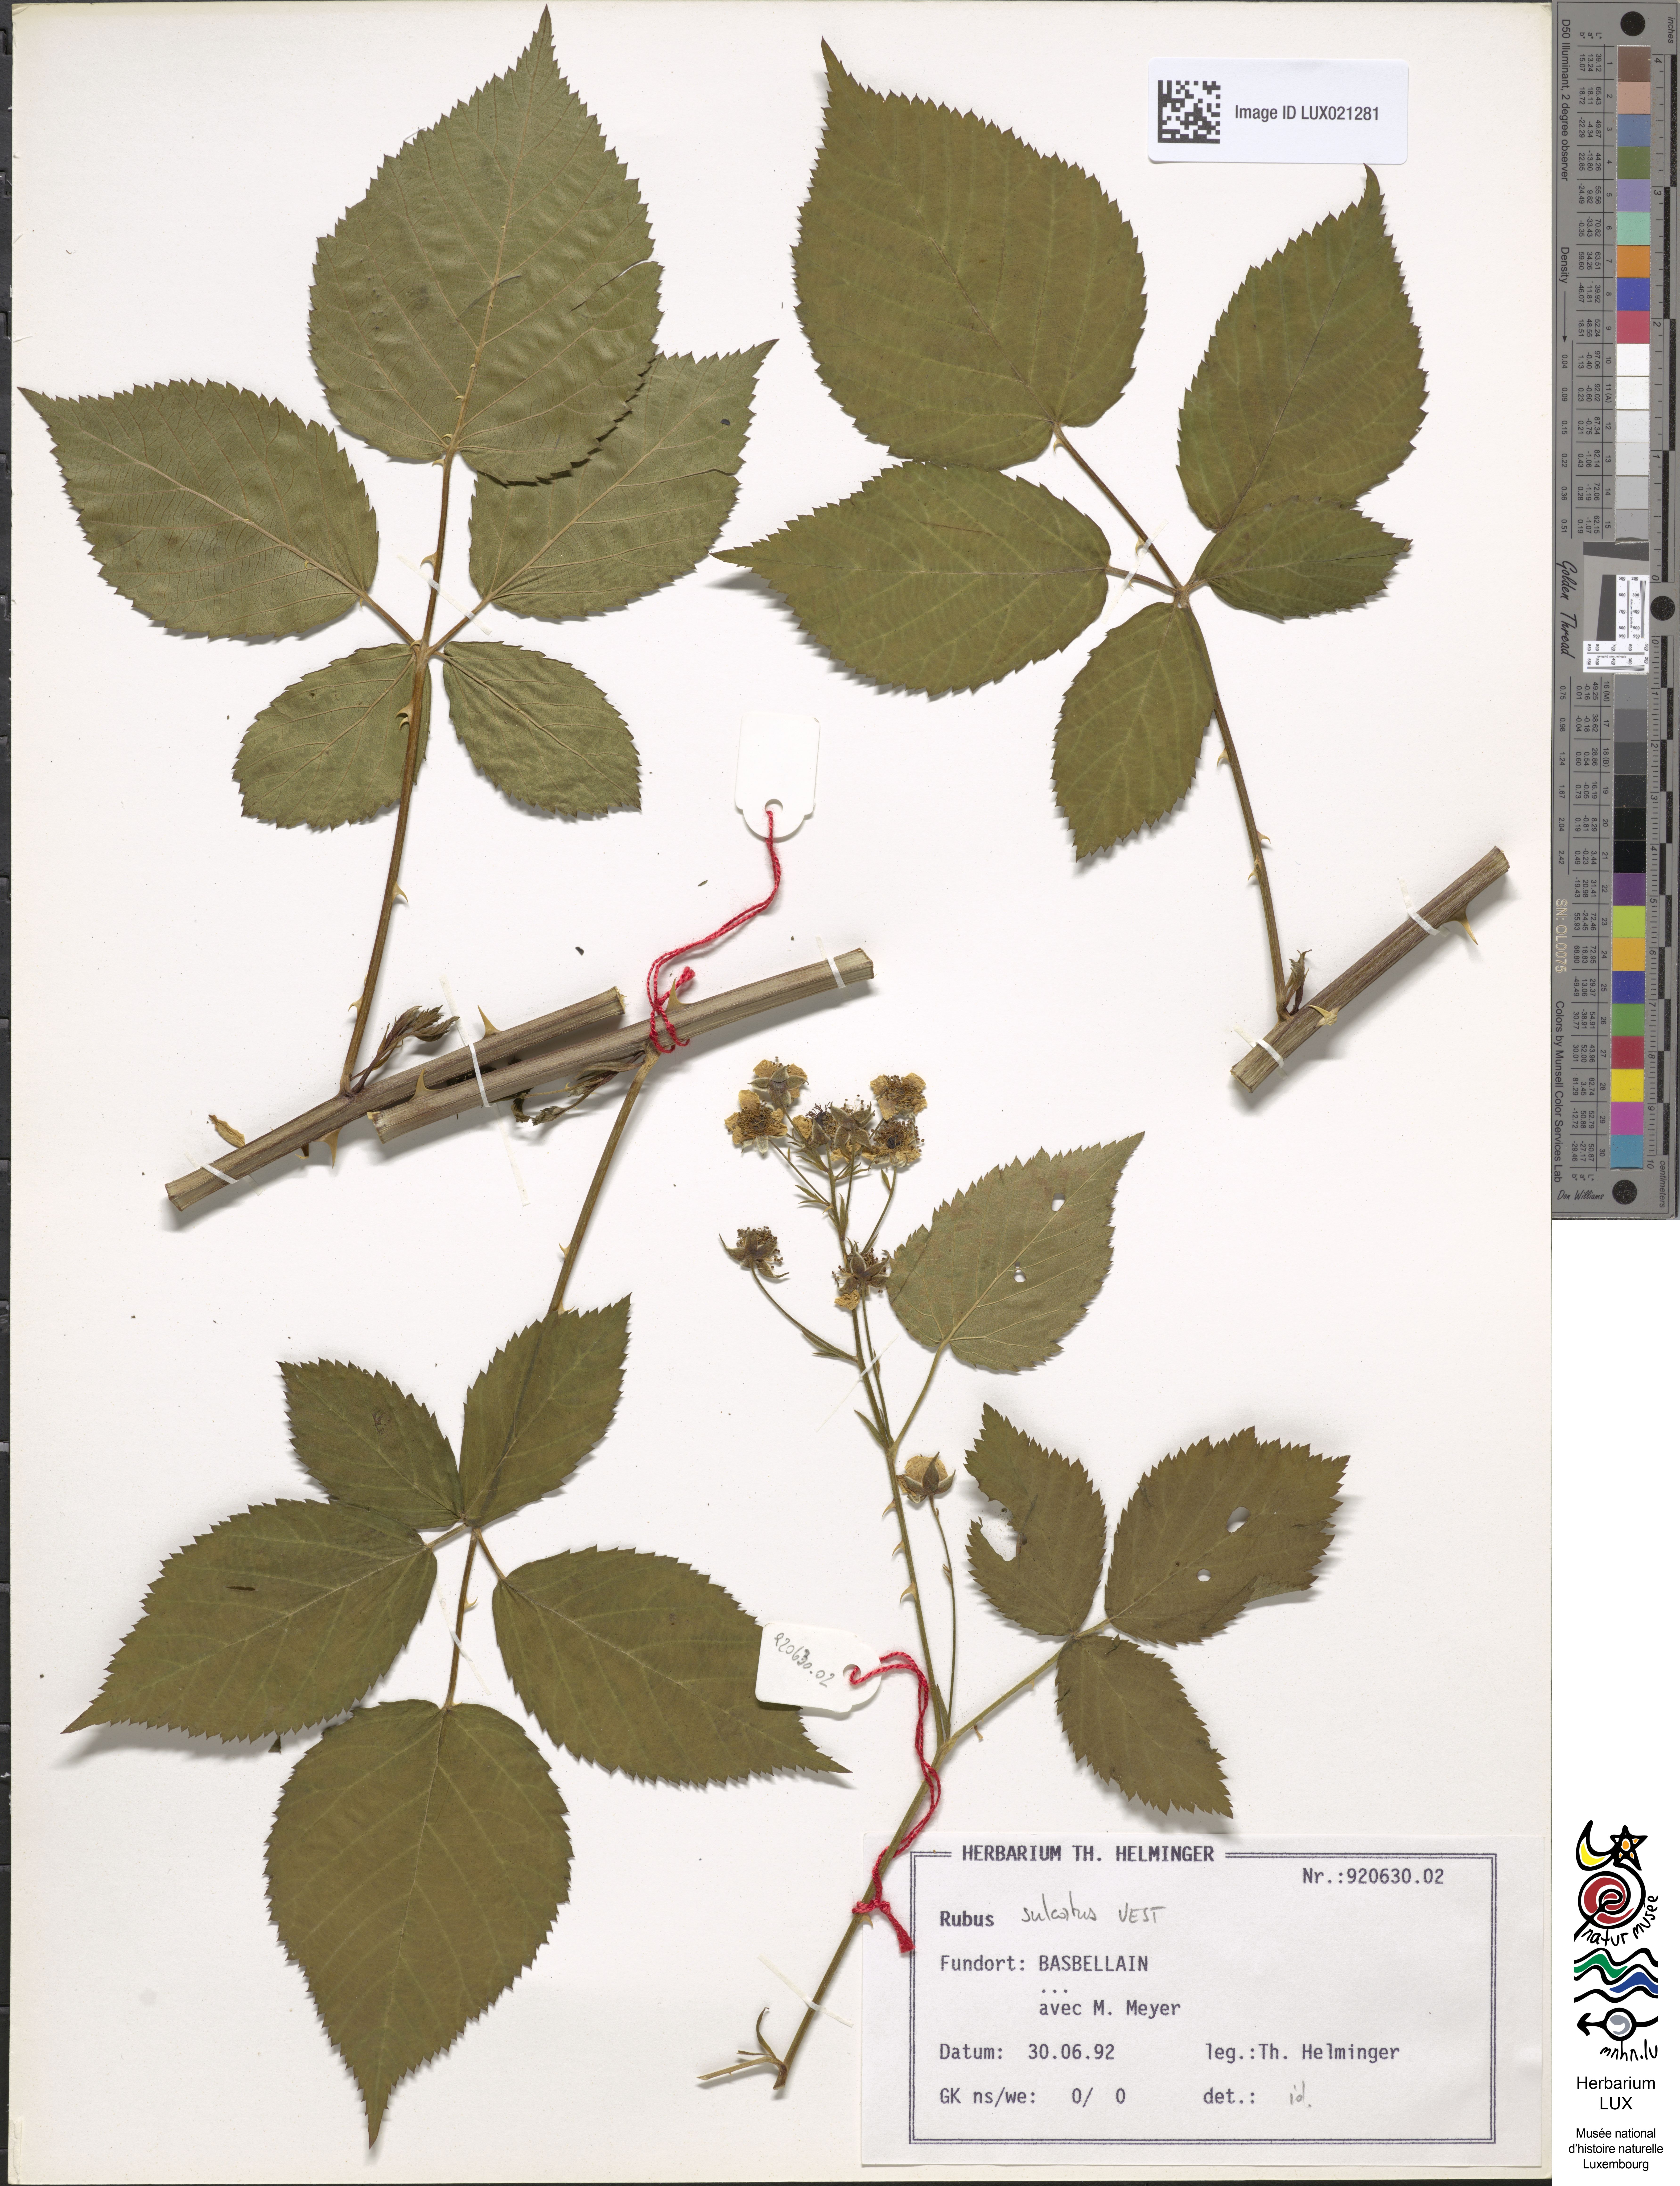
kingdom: Plantae
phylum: Tracheophyta
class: Magnoliopsida
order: Rosales
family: Rosaceae
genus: Rubus
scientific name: Rubus sulcatus
